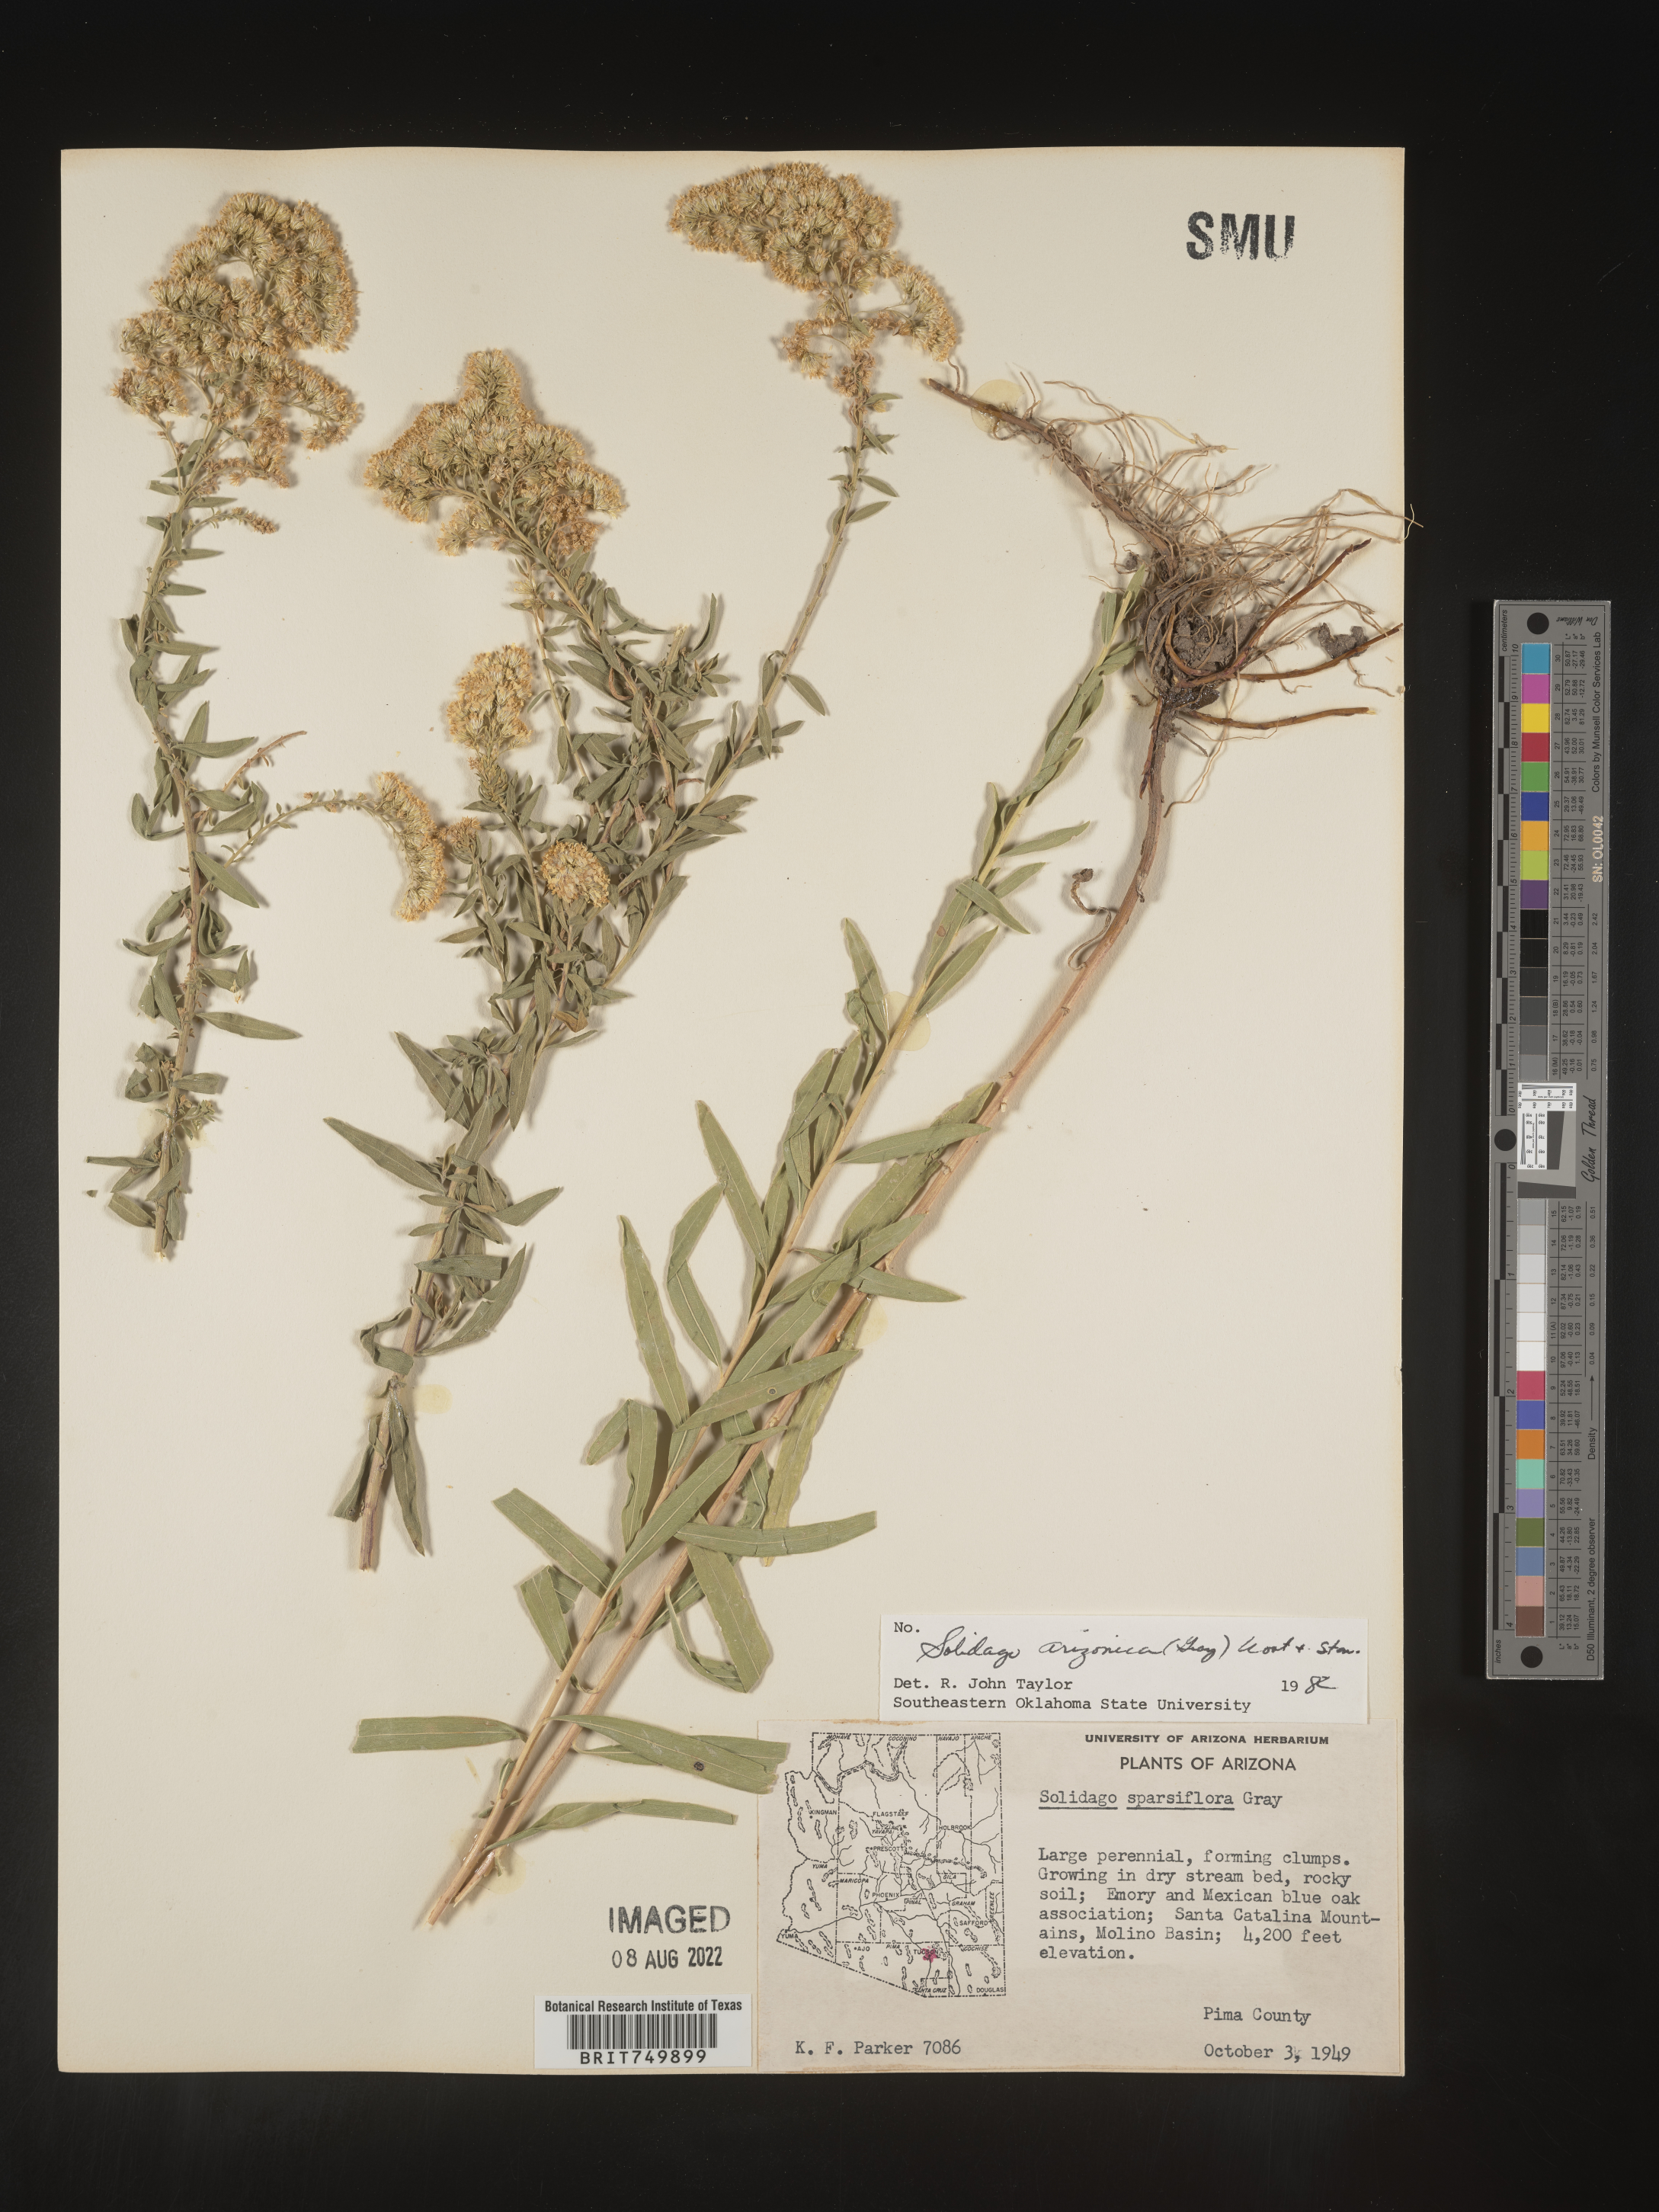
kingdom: Plantae
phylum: Tracheophyta
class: Magnoliopsida
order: Asterales
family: Asteraceae
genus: Solidago
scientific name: Solidago velutina
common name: Three-nerve goldenrod
